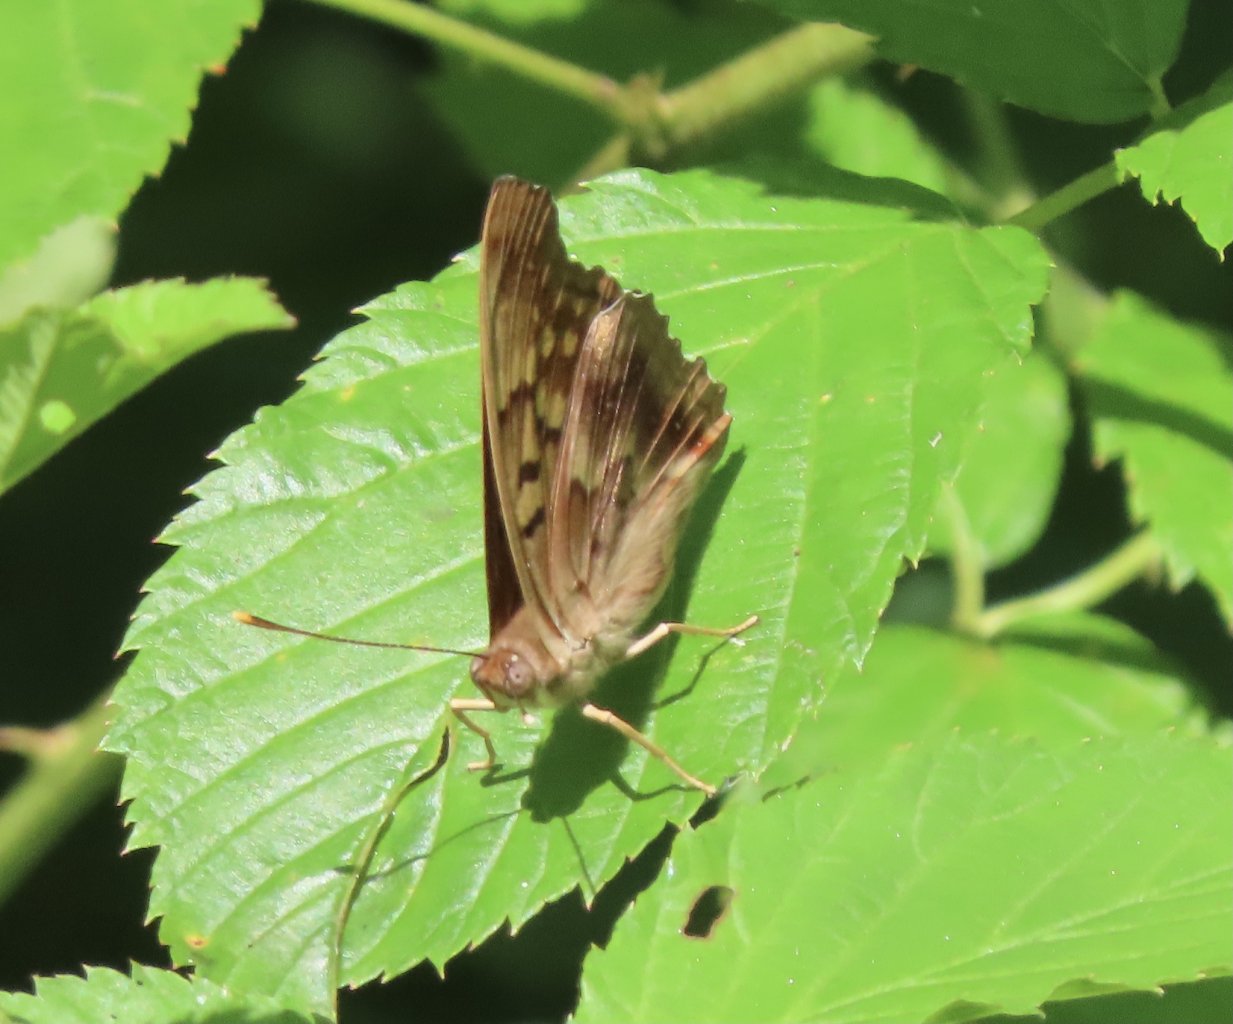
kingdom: Animalia
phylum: Arthropoda
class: Insecta
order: Lepidoptera
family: Nymphalidae
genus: Asterocampa
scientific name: Asterocampa clyton
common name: Tawny Emperor
